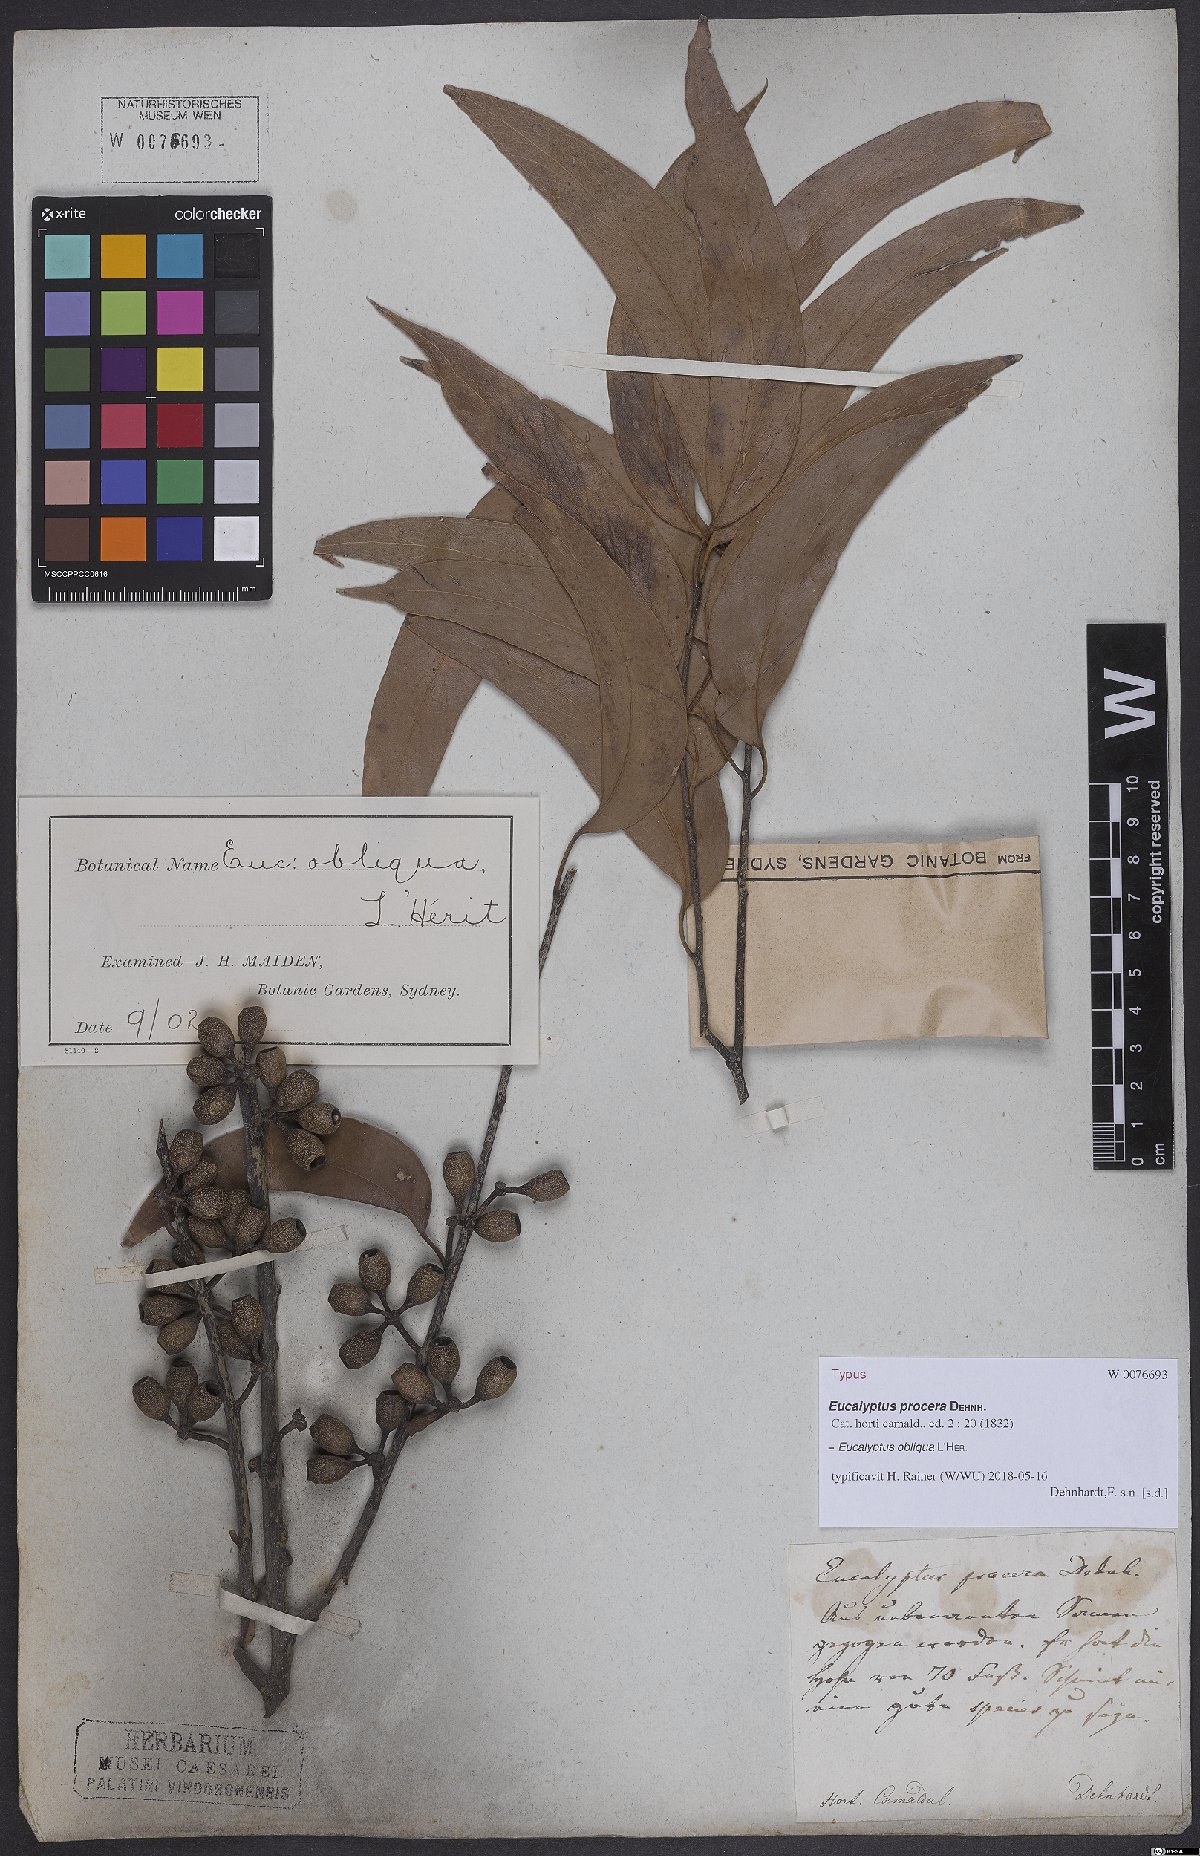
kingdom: Plantae
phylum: Tracheophyta
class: Magnoliopsida
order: Myrtales
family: Myrtaceae
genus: Eucalyptus
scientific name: Eucalyptus obliqua
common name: Messmate stringybark
